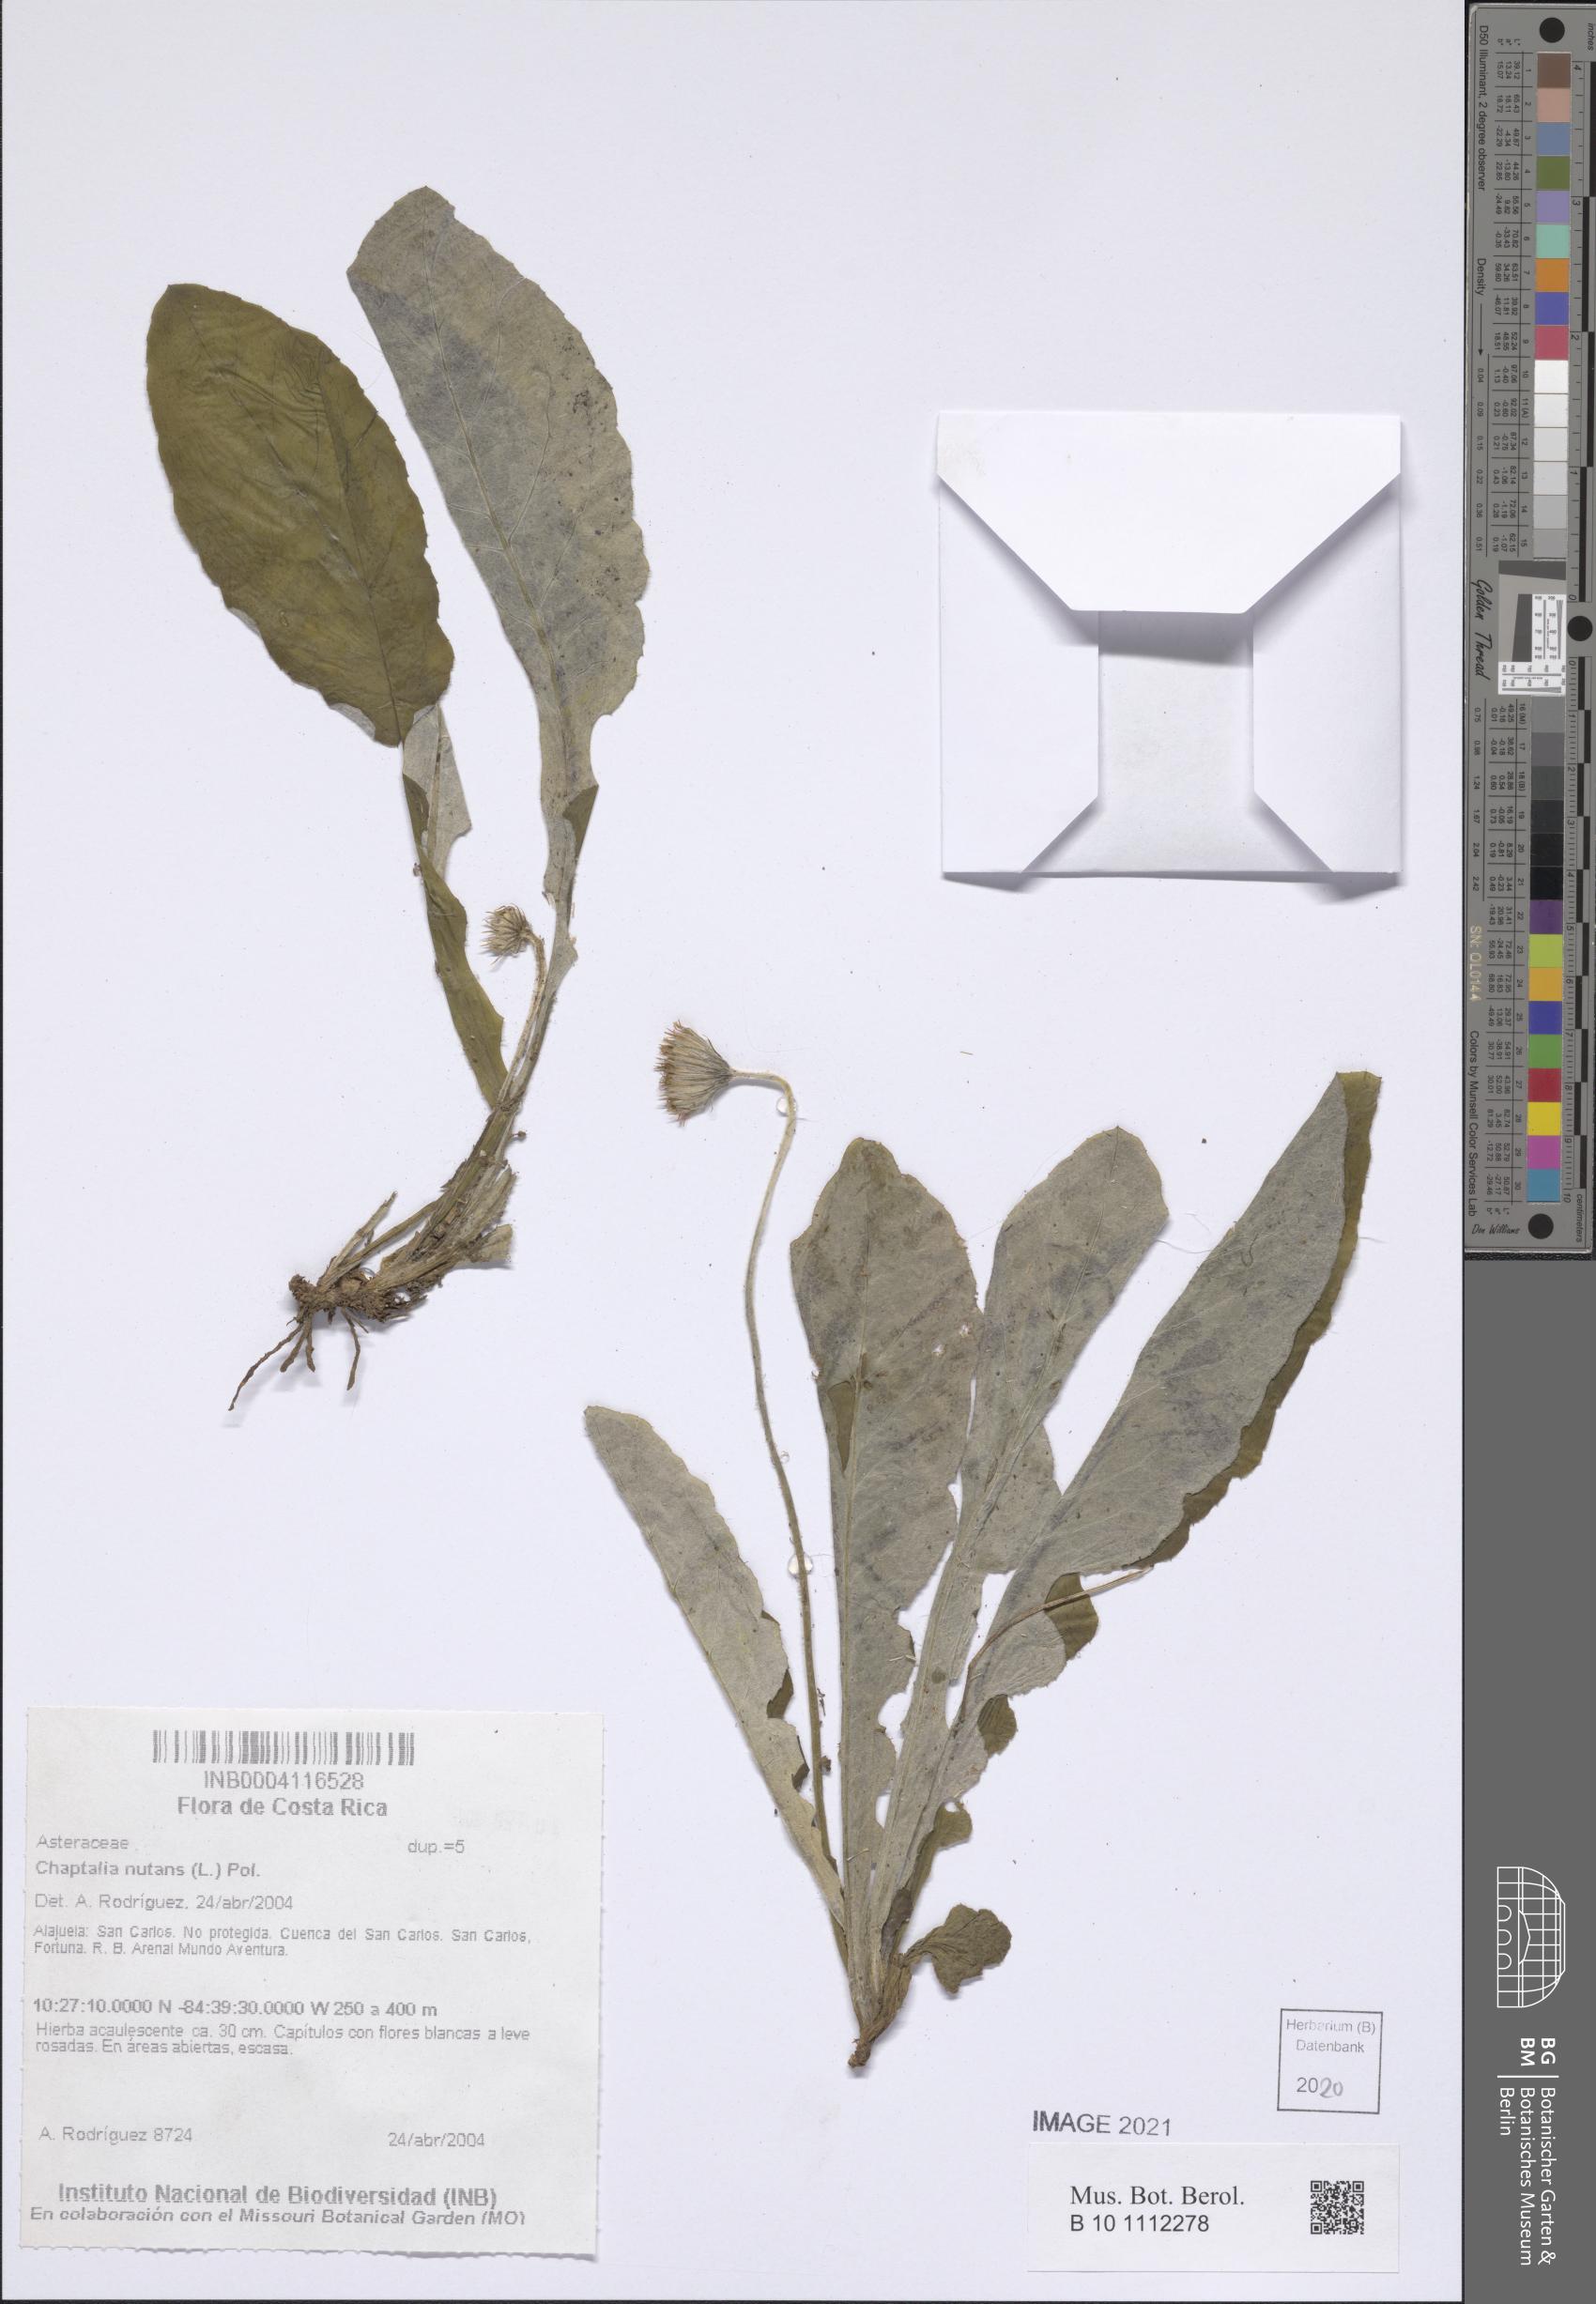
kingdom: Plantae
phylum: Tracheophyta
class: Magnoliopsida
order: Asterales
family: Asteraceae
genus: Chaptalia
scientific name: Chaptalia nutans
